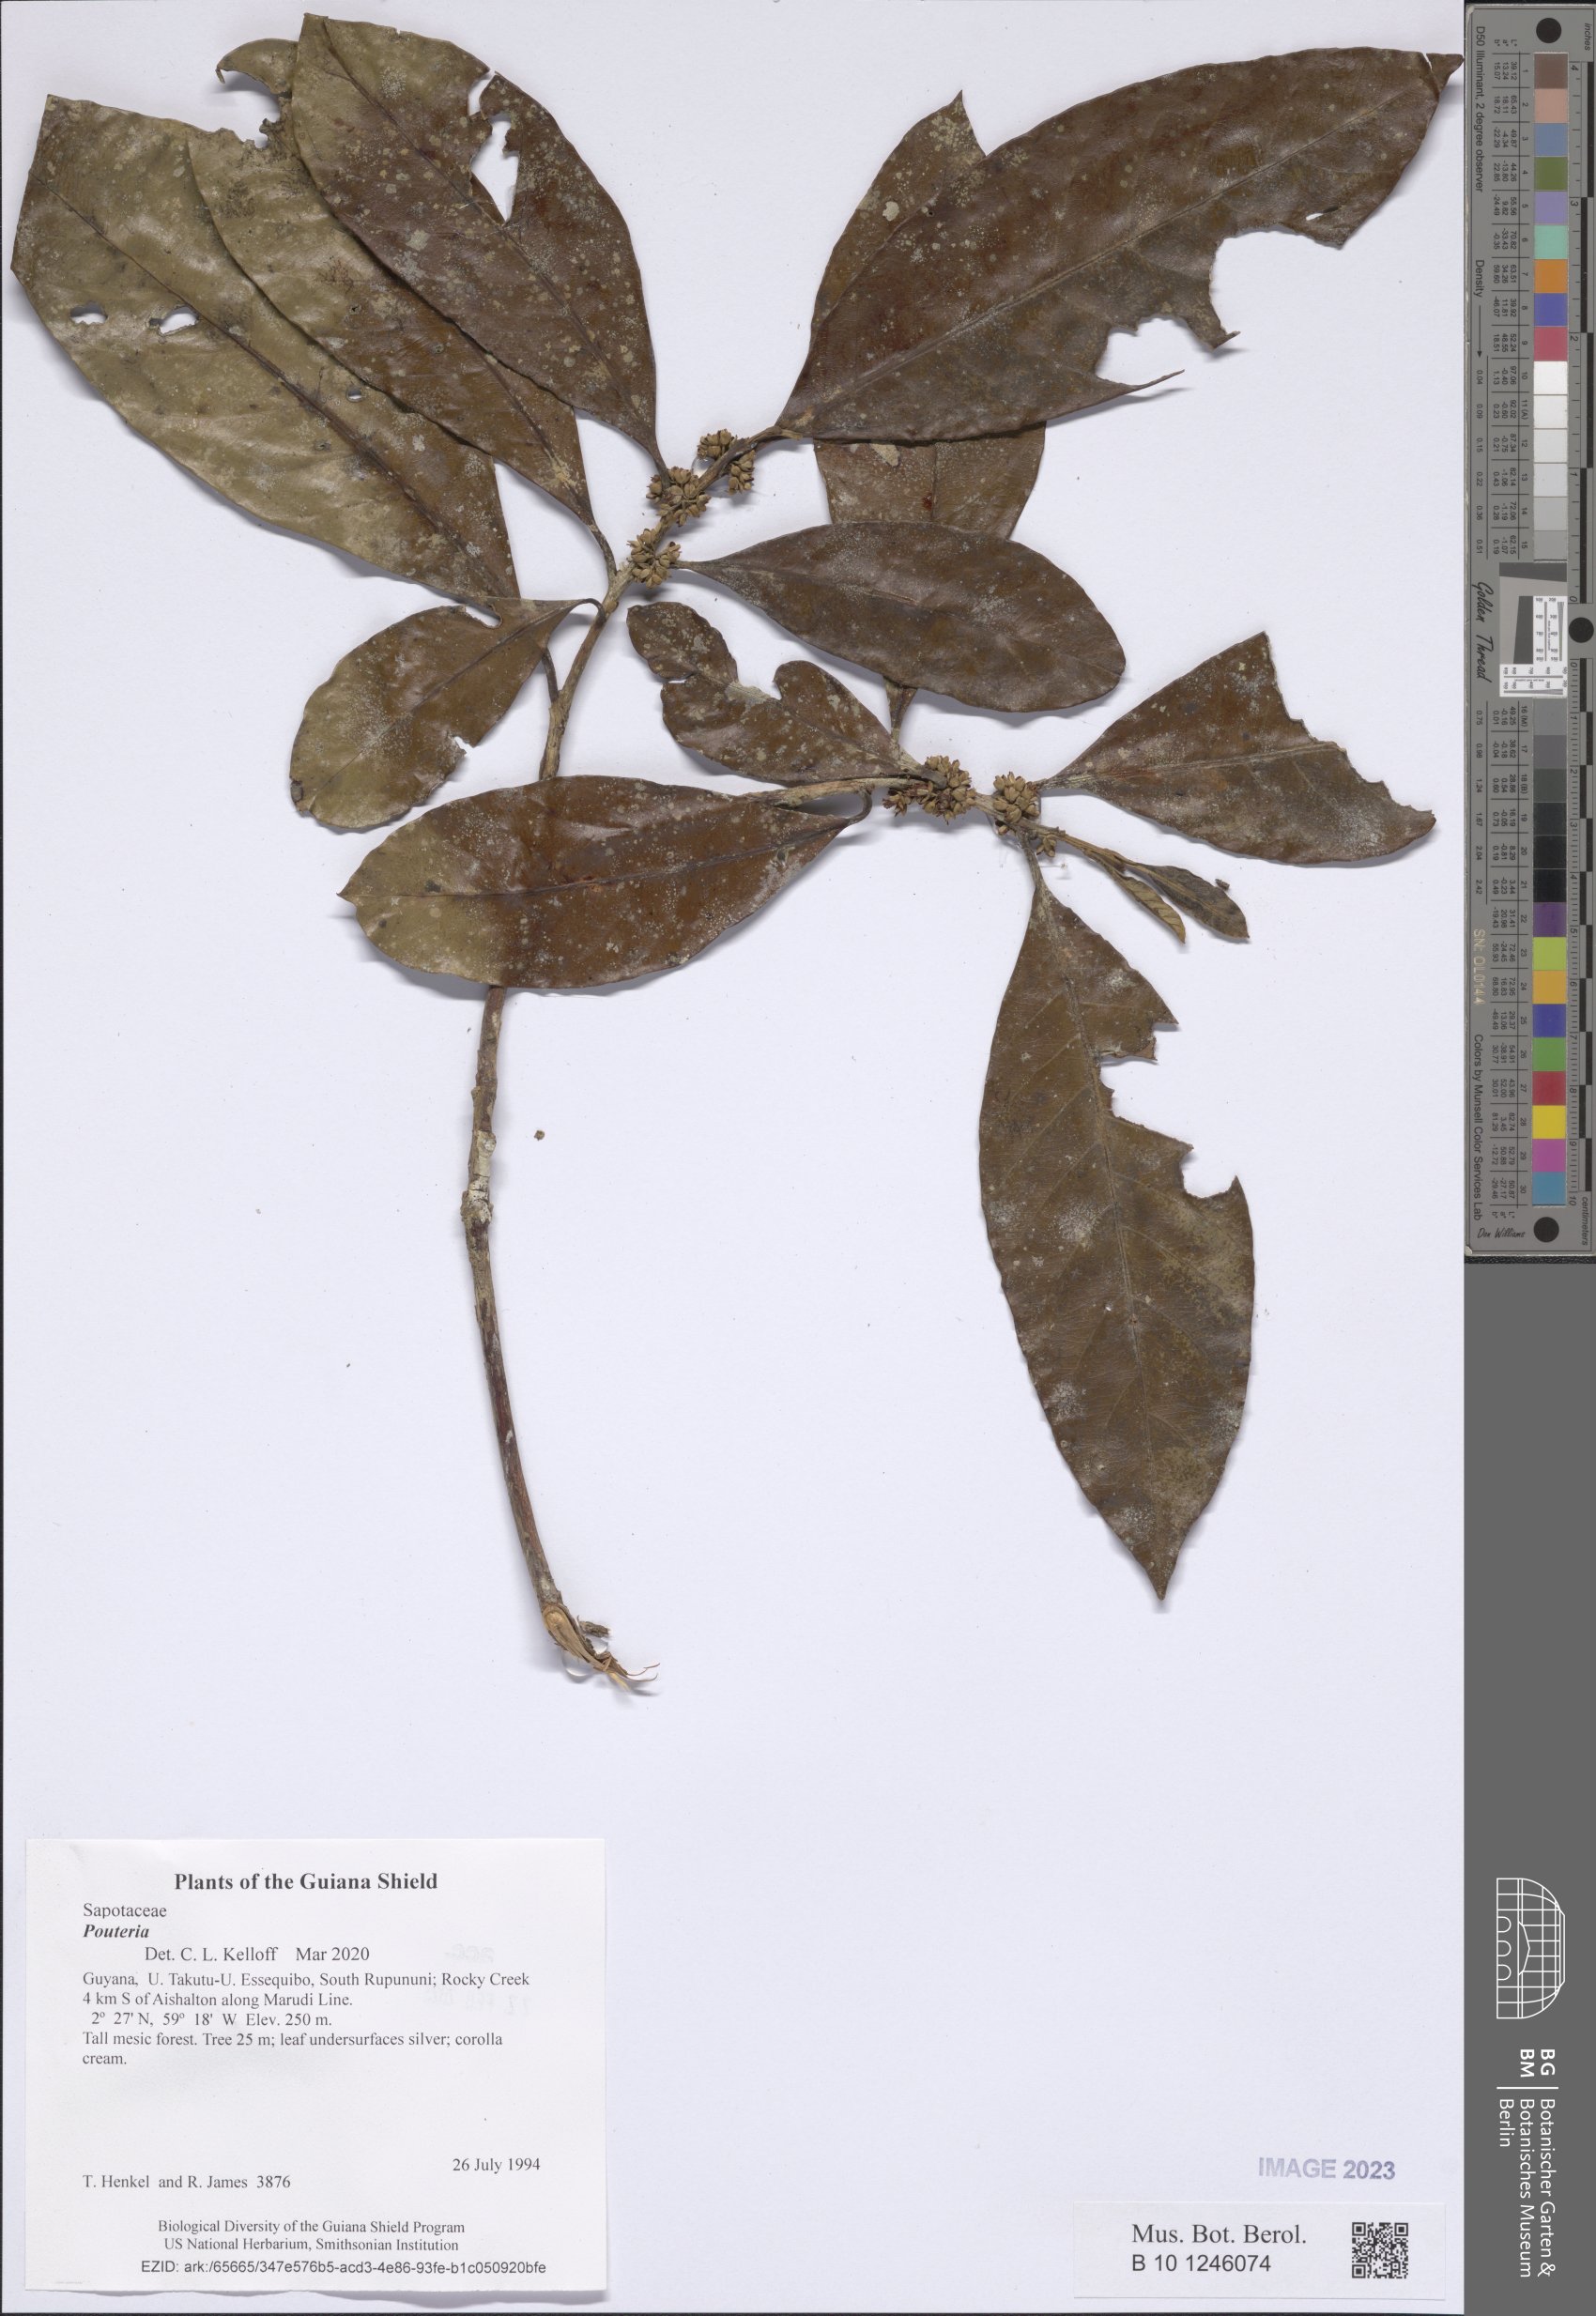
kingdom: Plantae
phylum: Tracheophyta
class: Magnoliopsida
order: Ericales
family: Sapotaceae
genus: Pouteria
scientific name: Pouteria
